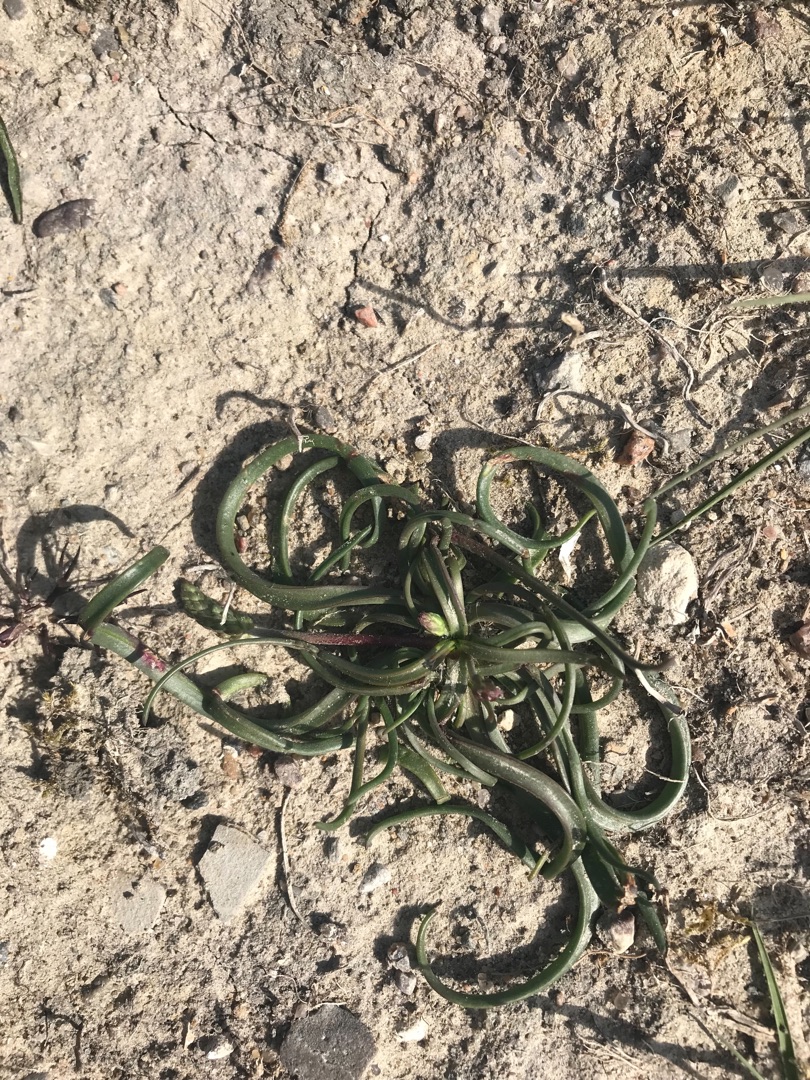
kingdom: Plantae
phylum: Tracheophyta
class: Magnoliopsida
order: Lamiales
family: Plantaginaceae
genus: Plantago
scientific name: Plantago maritima
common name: Strand-vejbred
